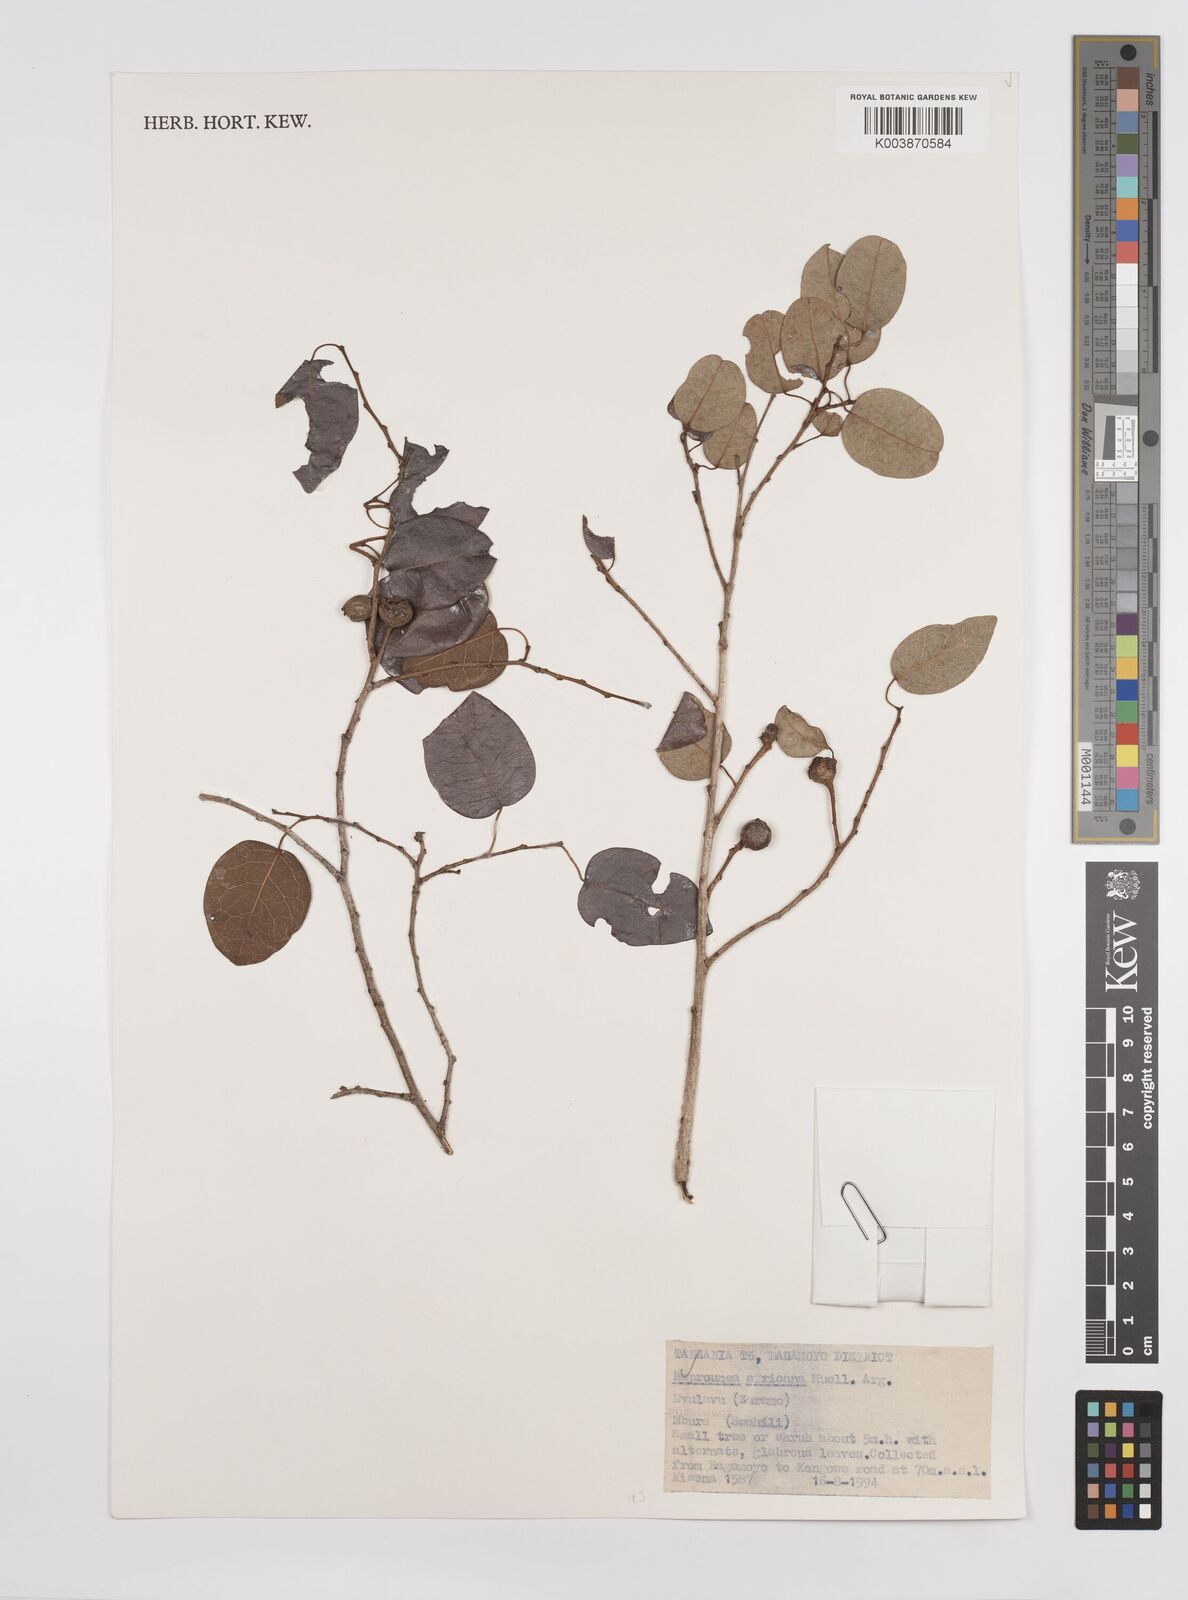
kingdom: Plantae
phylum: Tracheophyta
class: Magnoliopsida
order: Malpighiales
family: Euphorbiaceae
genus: Maprounea
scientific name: Maprounea africana
